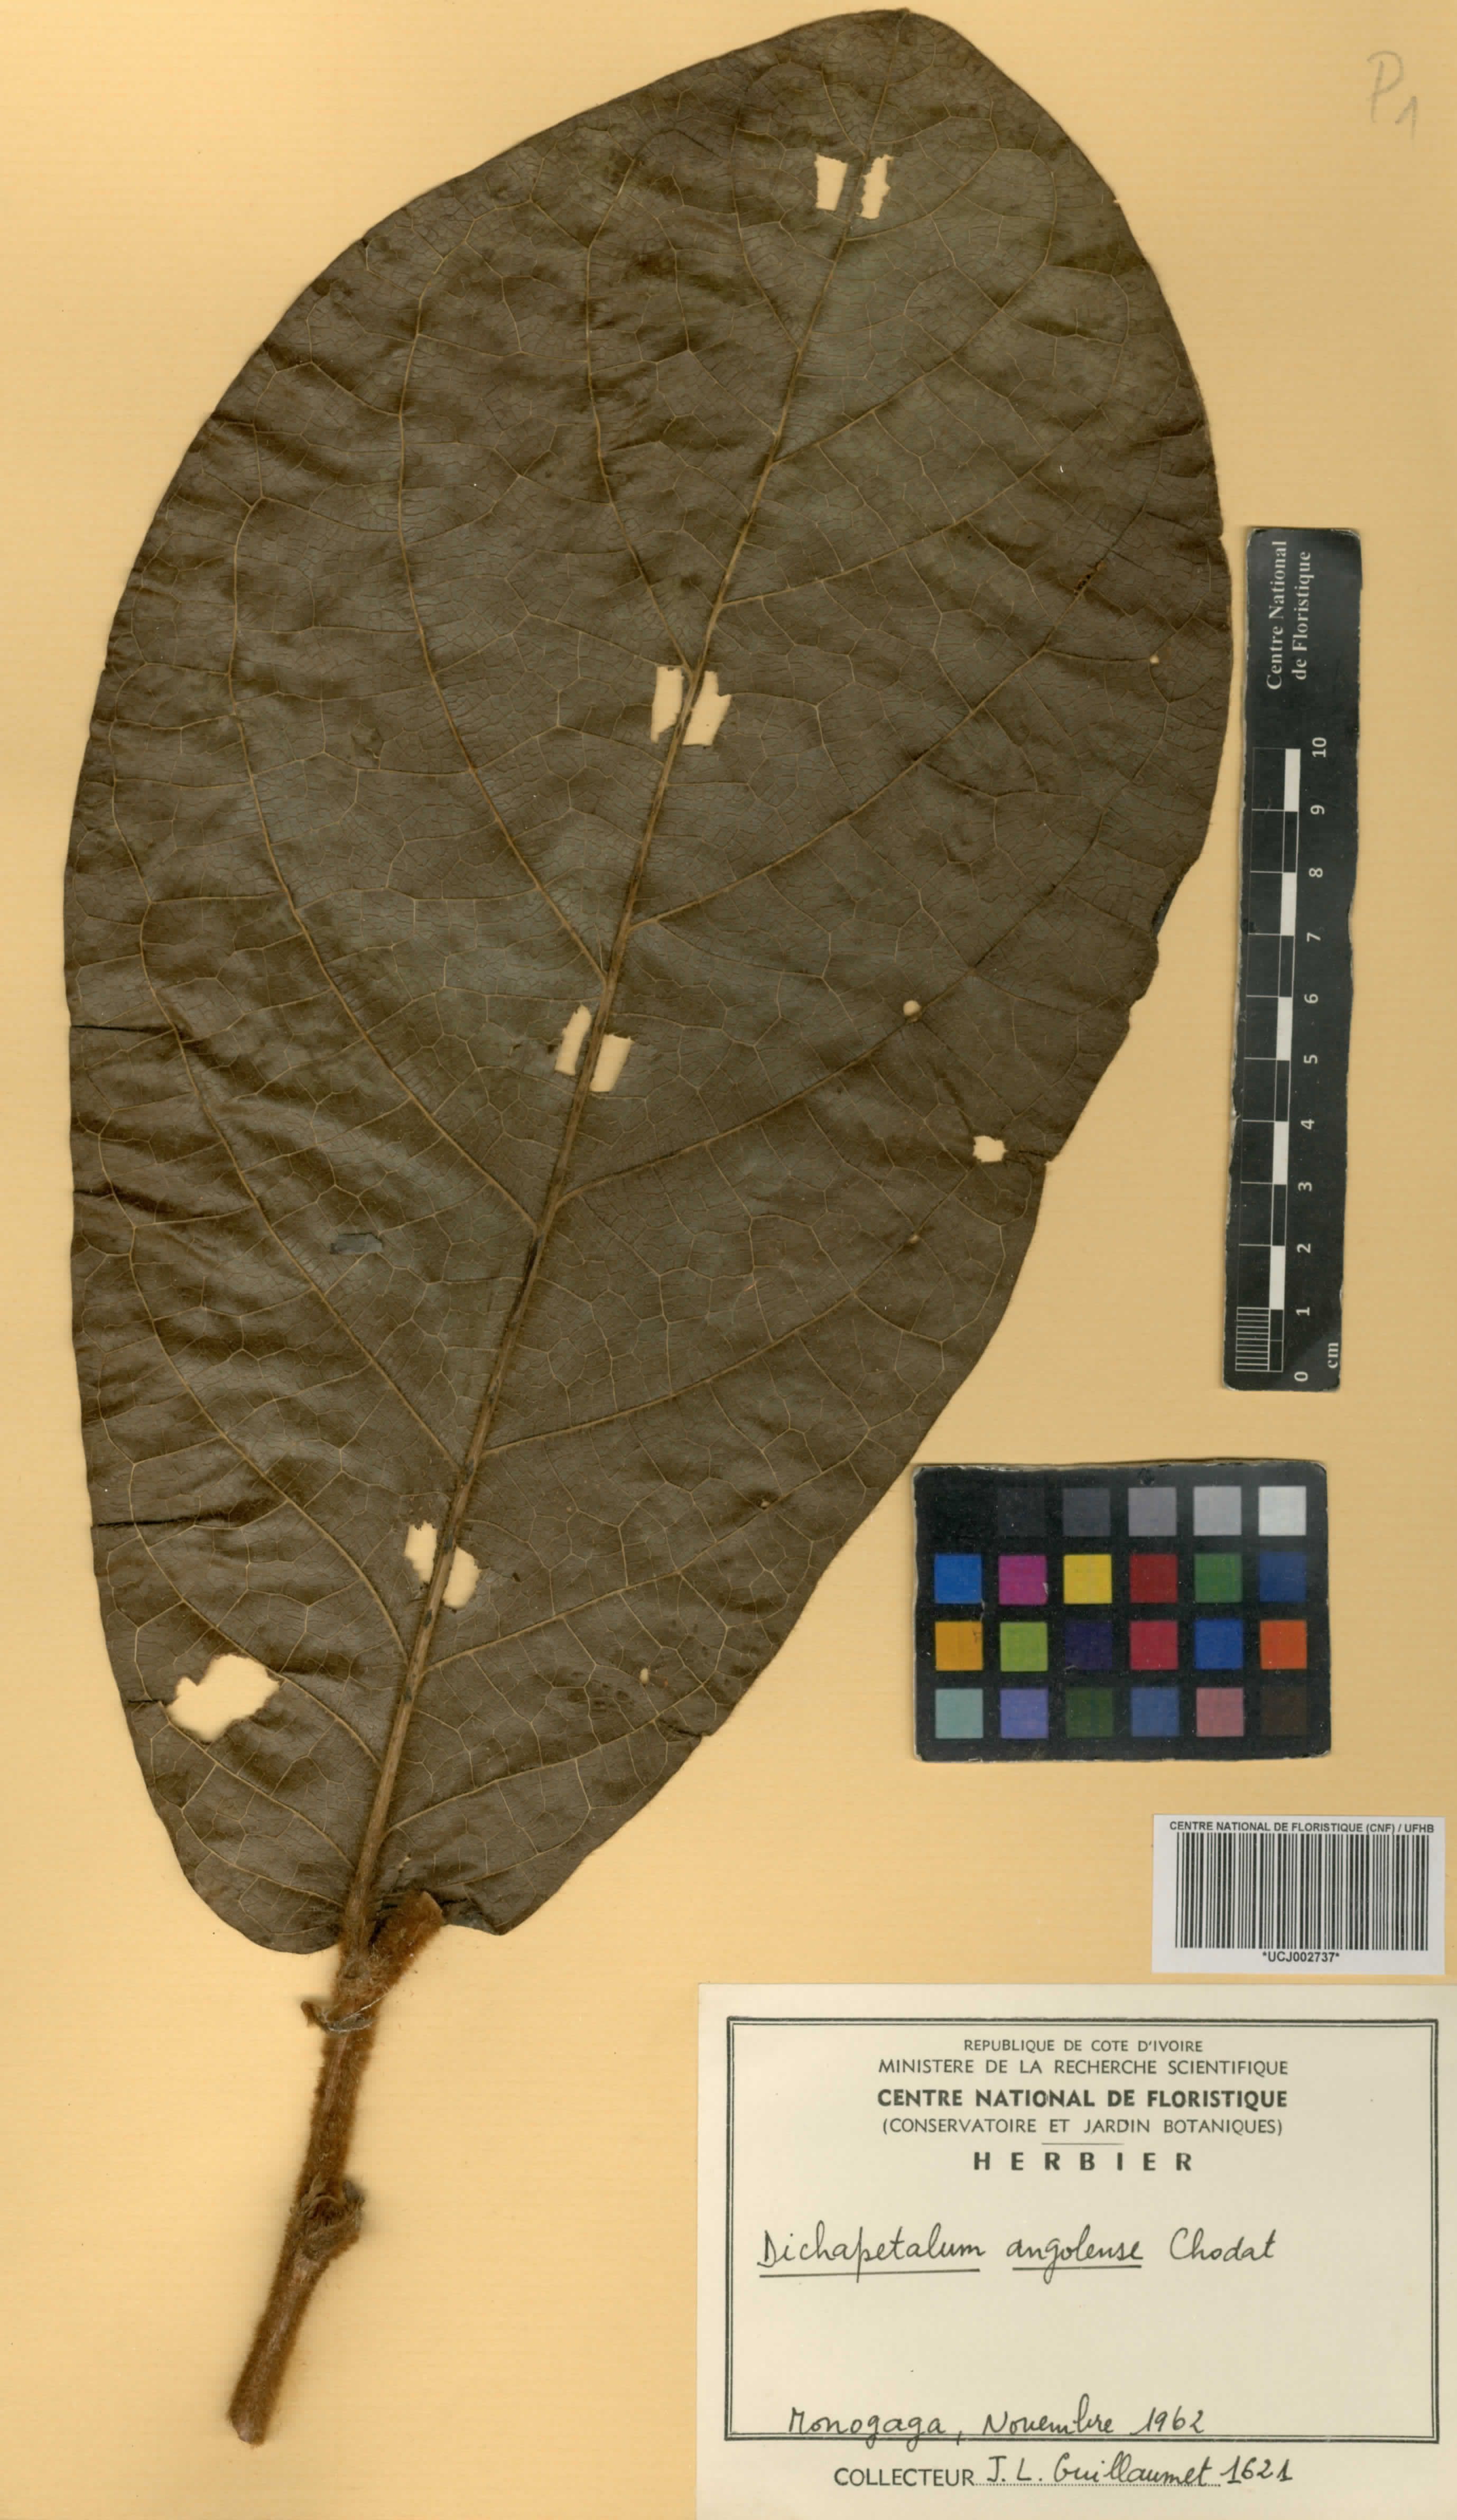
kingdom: Plantae
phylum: Tracheophyta
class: Magnoliopsida
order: Malpighiales
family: Dichapetalaceae
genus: Dichapetalum
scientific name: Dichapetalum angolense
